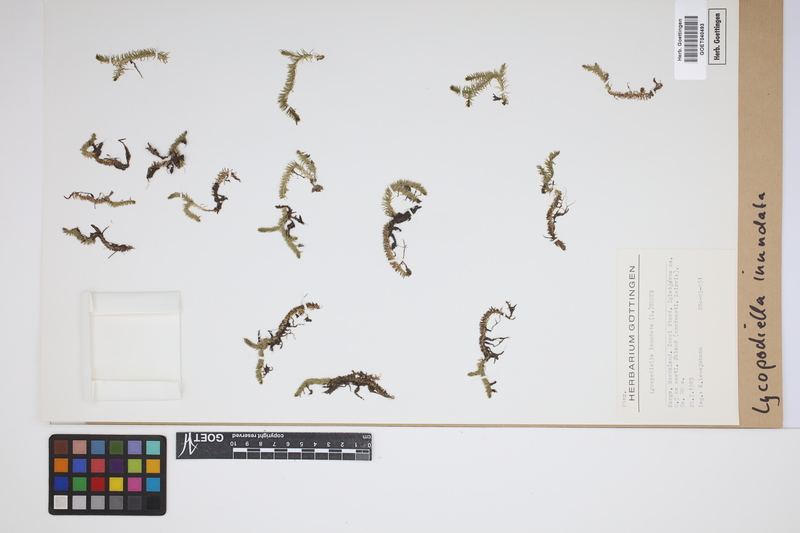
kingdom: Plantae
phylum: Tracheophyta
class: Lycopodiopsida
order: Lycopodiales
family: Lycopodiaceae
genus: Lycopodiella
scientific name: Lycopodiella inundata
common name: Marsh clubmoss
